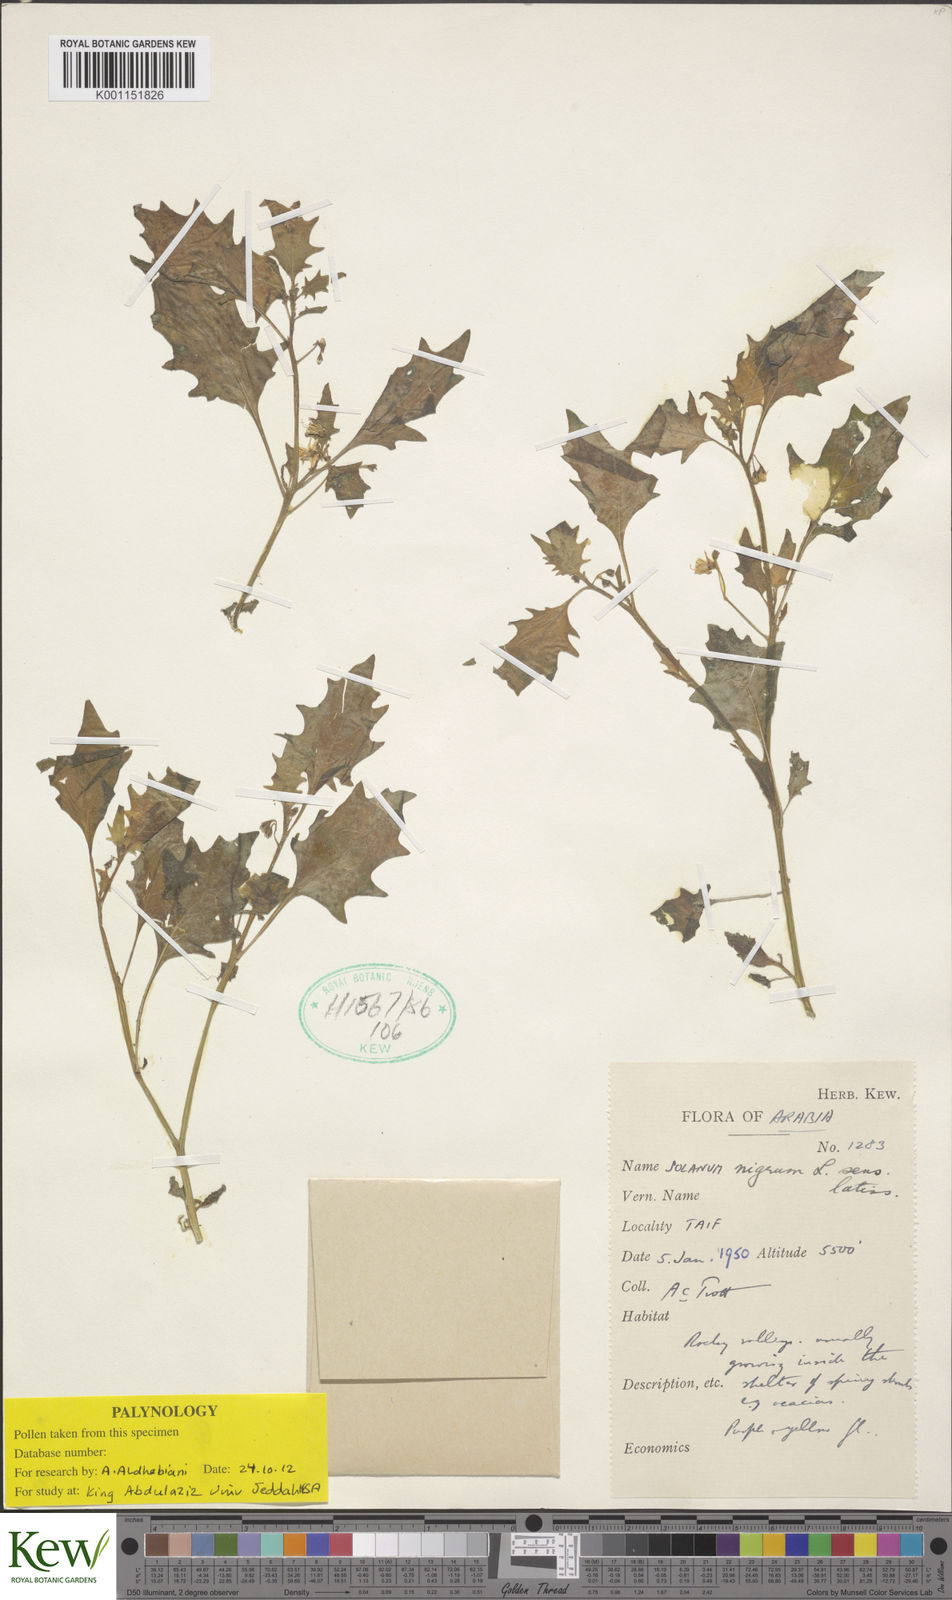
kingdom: Plantae
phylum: Tracheophyta
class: Magnoliopsida
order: Solanales
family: Solanaceae
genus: Solanum
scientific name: Solanum villosum
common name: Red nightshade
